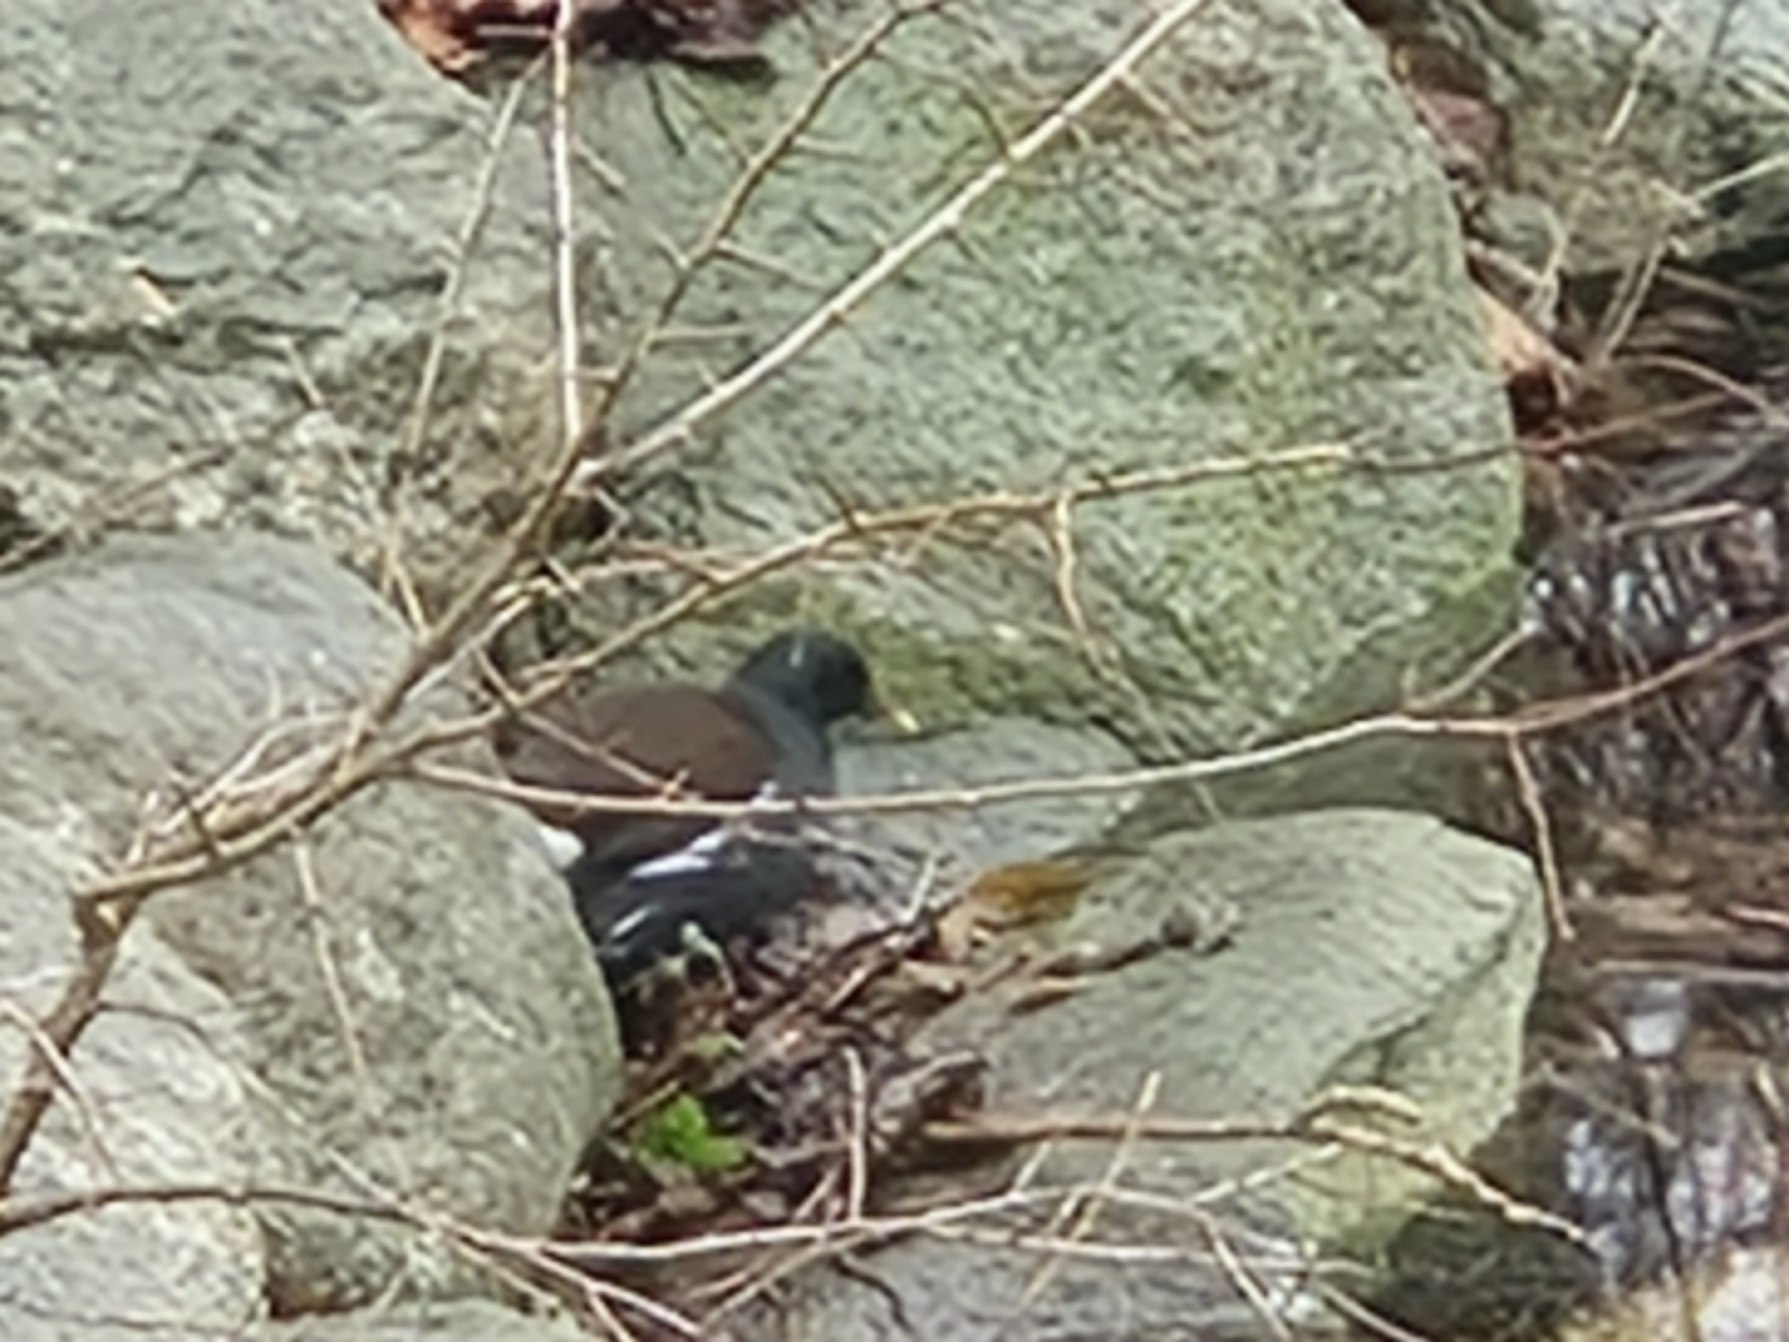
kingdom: Animalia
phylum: Chordata
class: Aves
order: Gruiformes
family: Rallidae
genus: Gallinula
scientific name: Gallinula chloropus
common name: Grønbenet rørhøne
